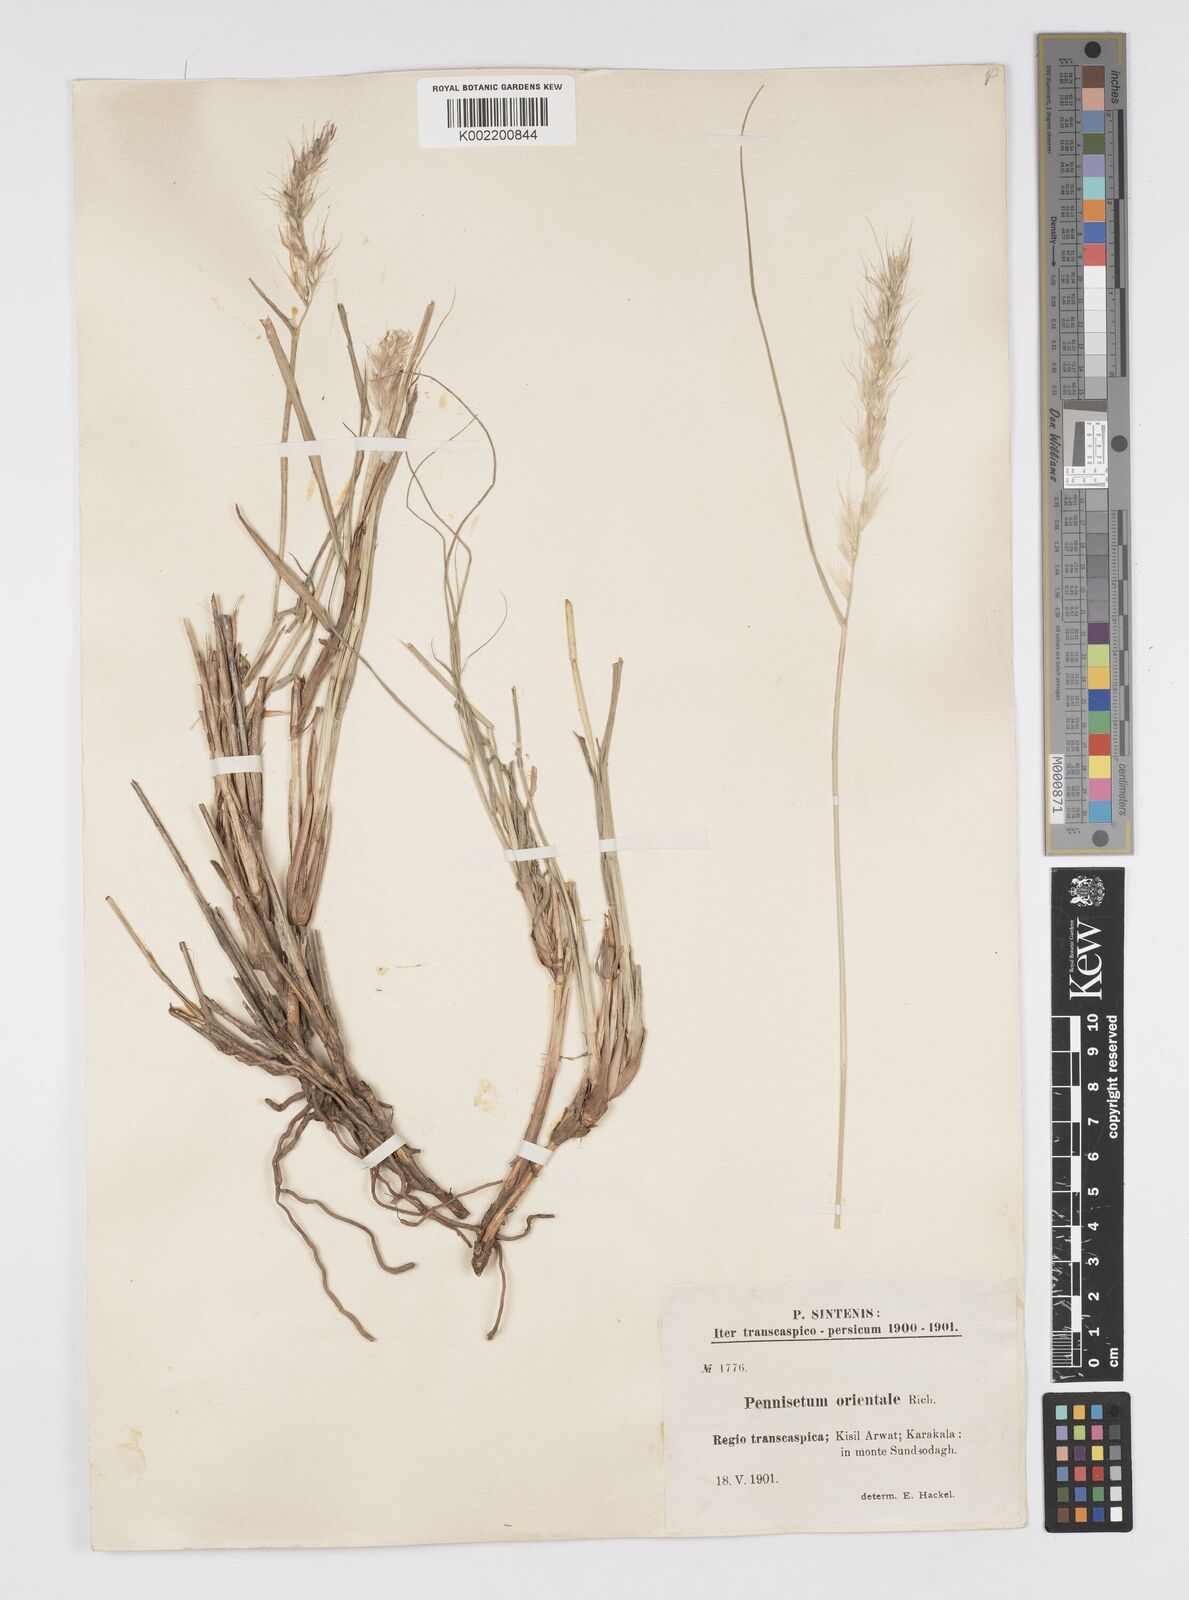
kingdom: Plantae
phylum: Tracheophyta
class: Liliopsida
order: Poales
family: Poaceae
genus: Cenchrus
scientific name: Cenchrus orientalis
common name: Oriental fountain grass
